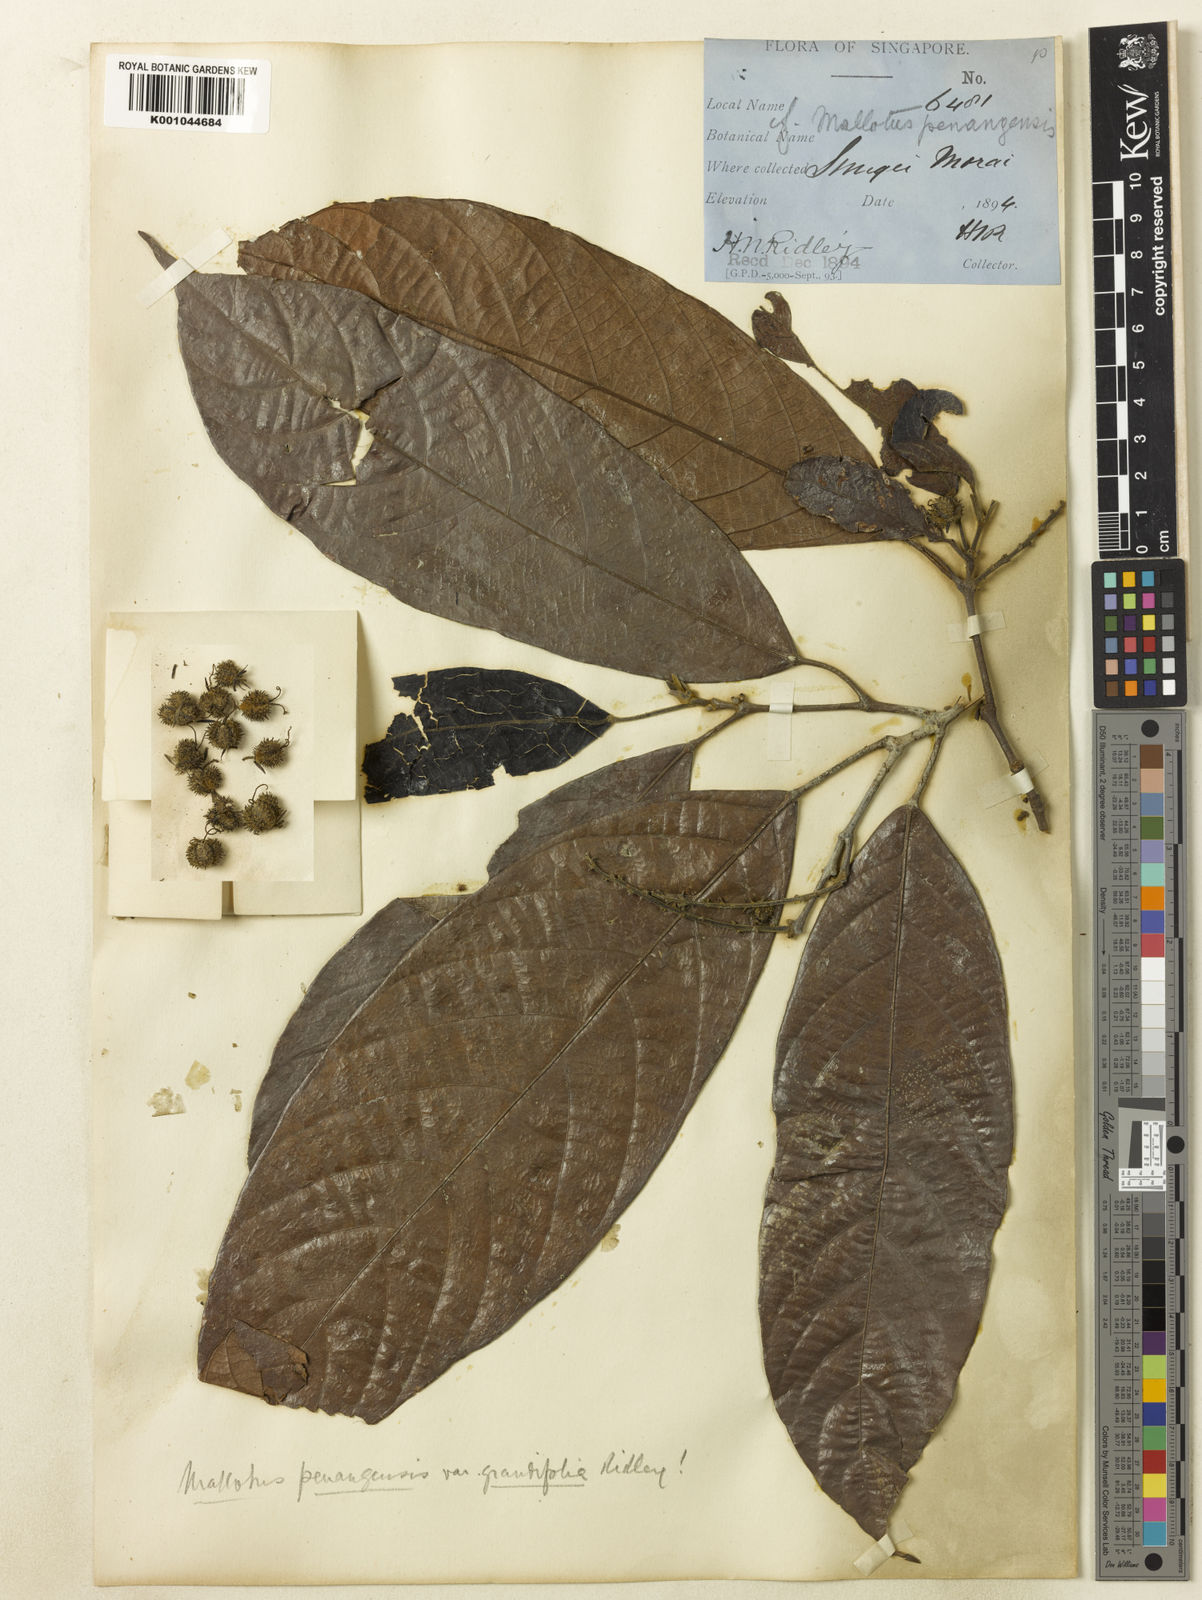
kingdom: Plantae
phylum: Tracheophyta
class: Magnoliopsida
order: Malpighiales
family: Euphorbiaceae
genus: Hancea
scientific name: Hancea penangensis
